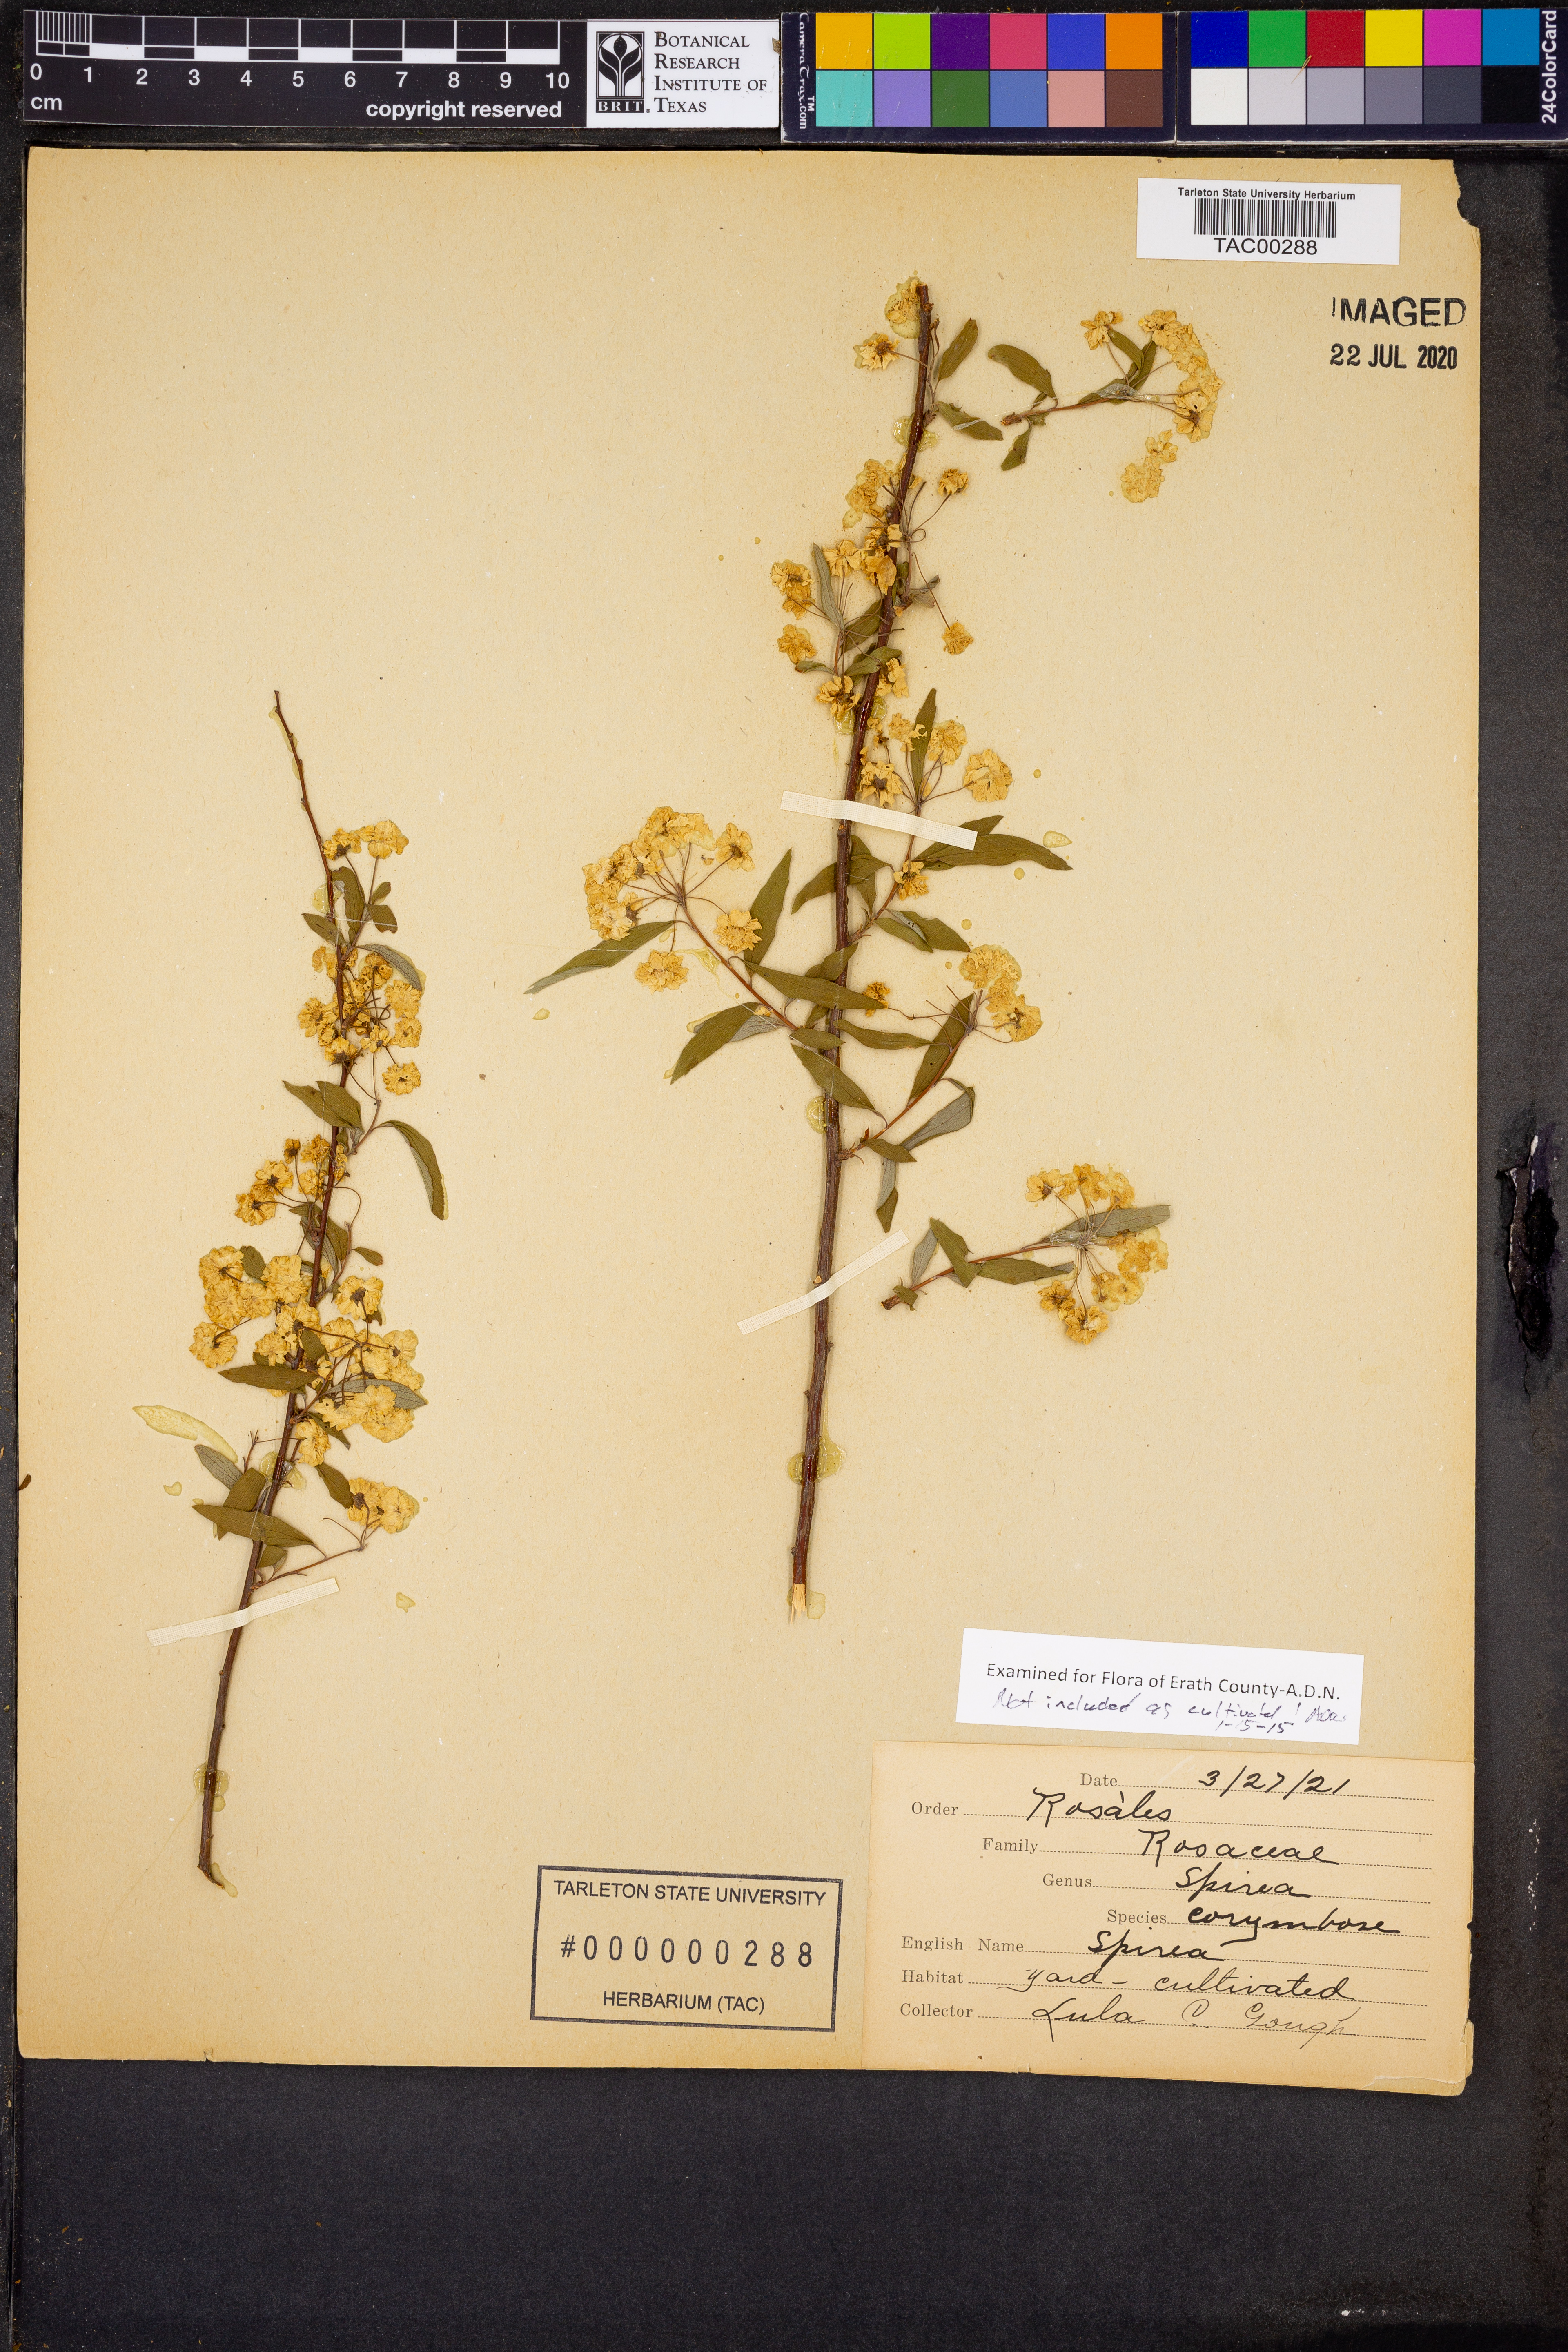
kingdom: Plantae
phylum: Tracheophyta
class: Magnoliopsida
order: Rosales
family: Rosaceae
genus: Spiraea
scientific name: Spiraea corymbosa
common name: Corymbed meadowsweet
